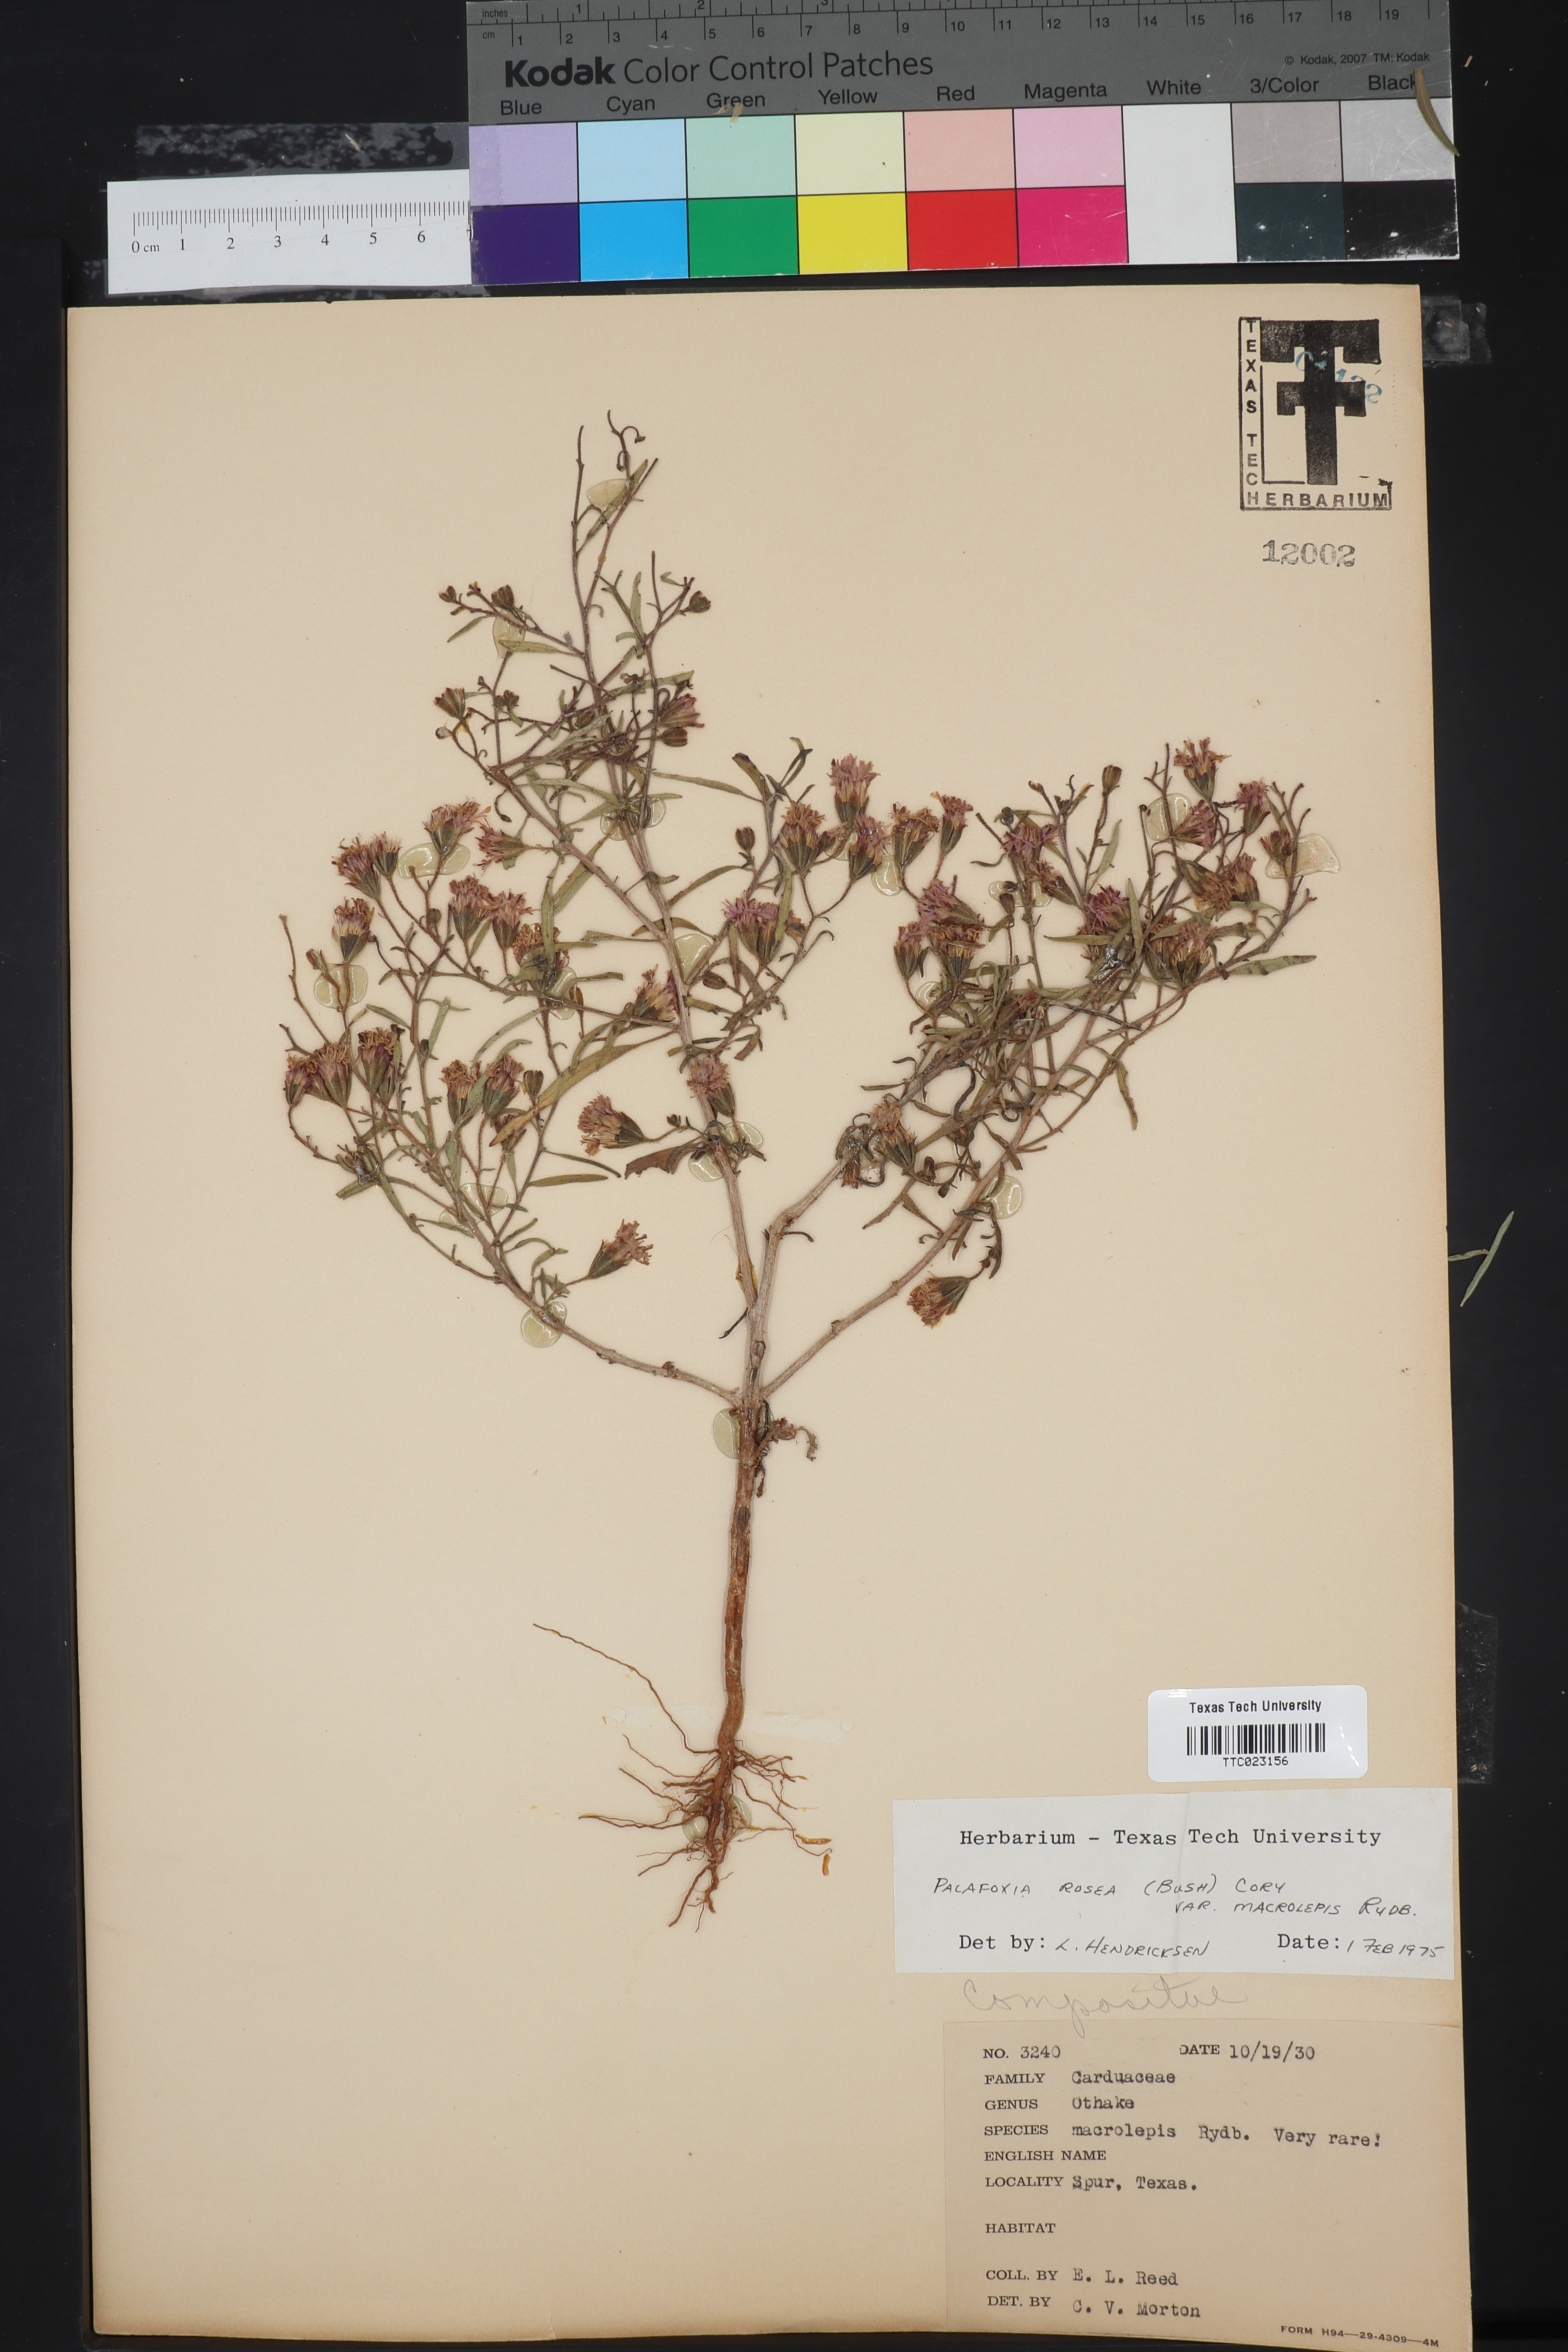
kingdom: Plantae
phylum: Tracheophyta
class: Magnoliopsida
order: Asterales
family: Asteraceae
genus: Palafoxia
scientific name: Palafoxia rosea
